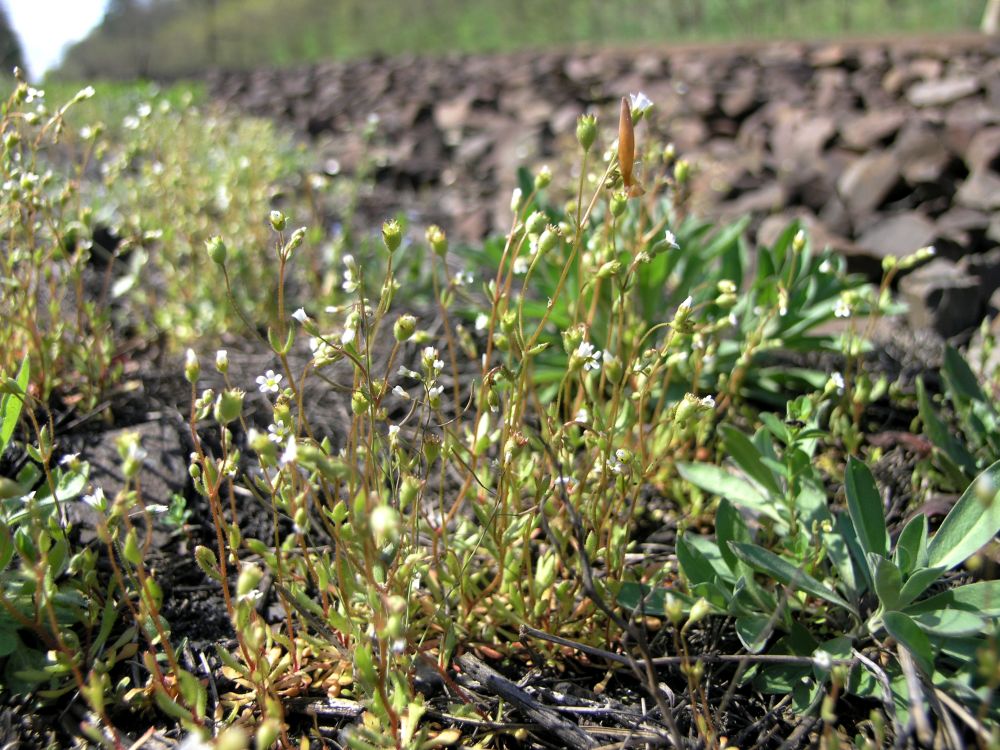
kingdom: Plantae
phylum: Tracheophyta
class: Magnoliopsida
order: Saxifragales
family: Saxifragaceae
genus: Saxifraga
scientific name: Saxifraga tridactylites
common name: Rue-leaved saxifrage
